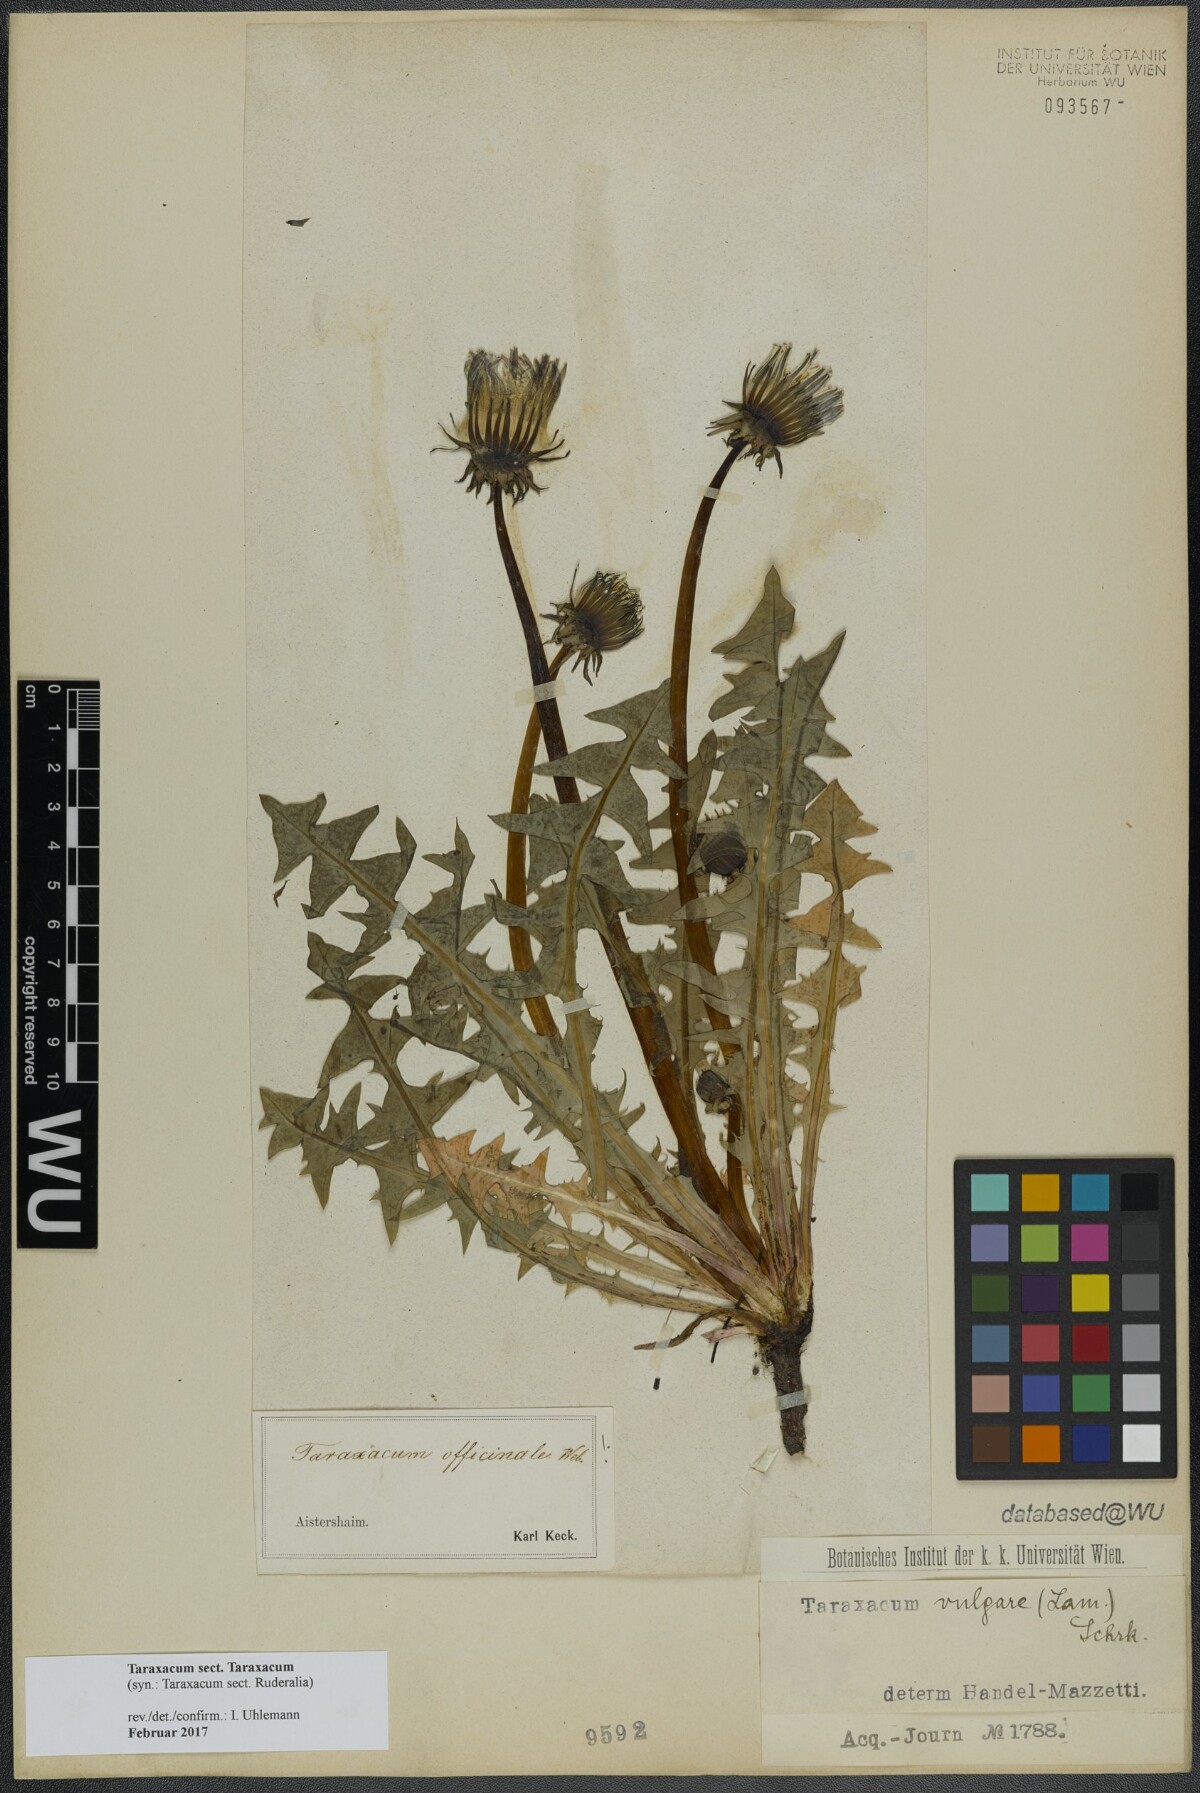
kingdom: Plantae
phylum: Tracheophyta
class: Magnoliopsida
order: Asterales
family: Asteraceae
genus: Taraxacum
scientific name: Taraxacum
